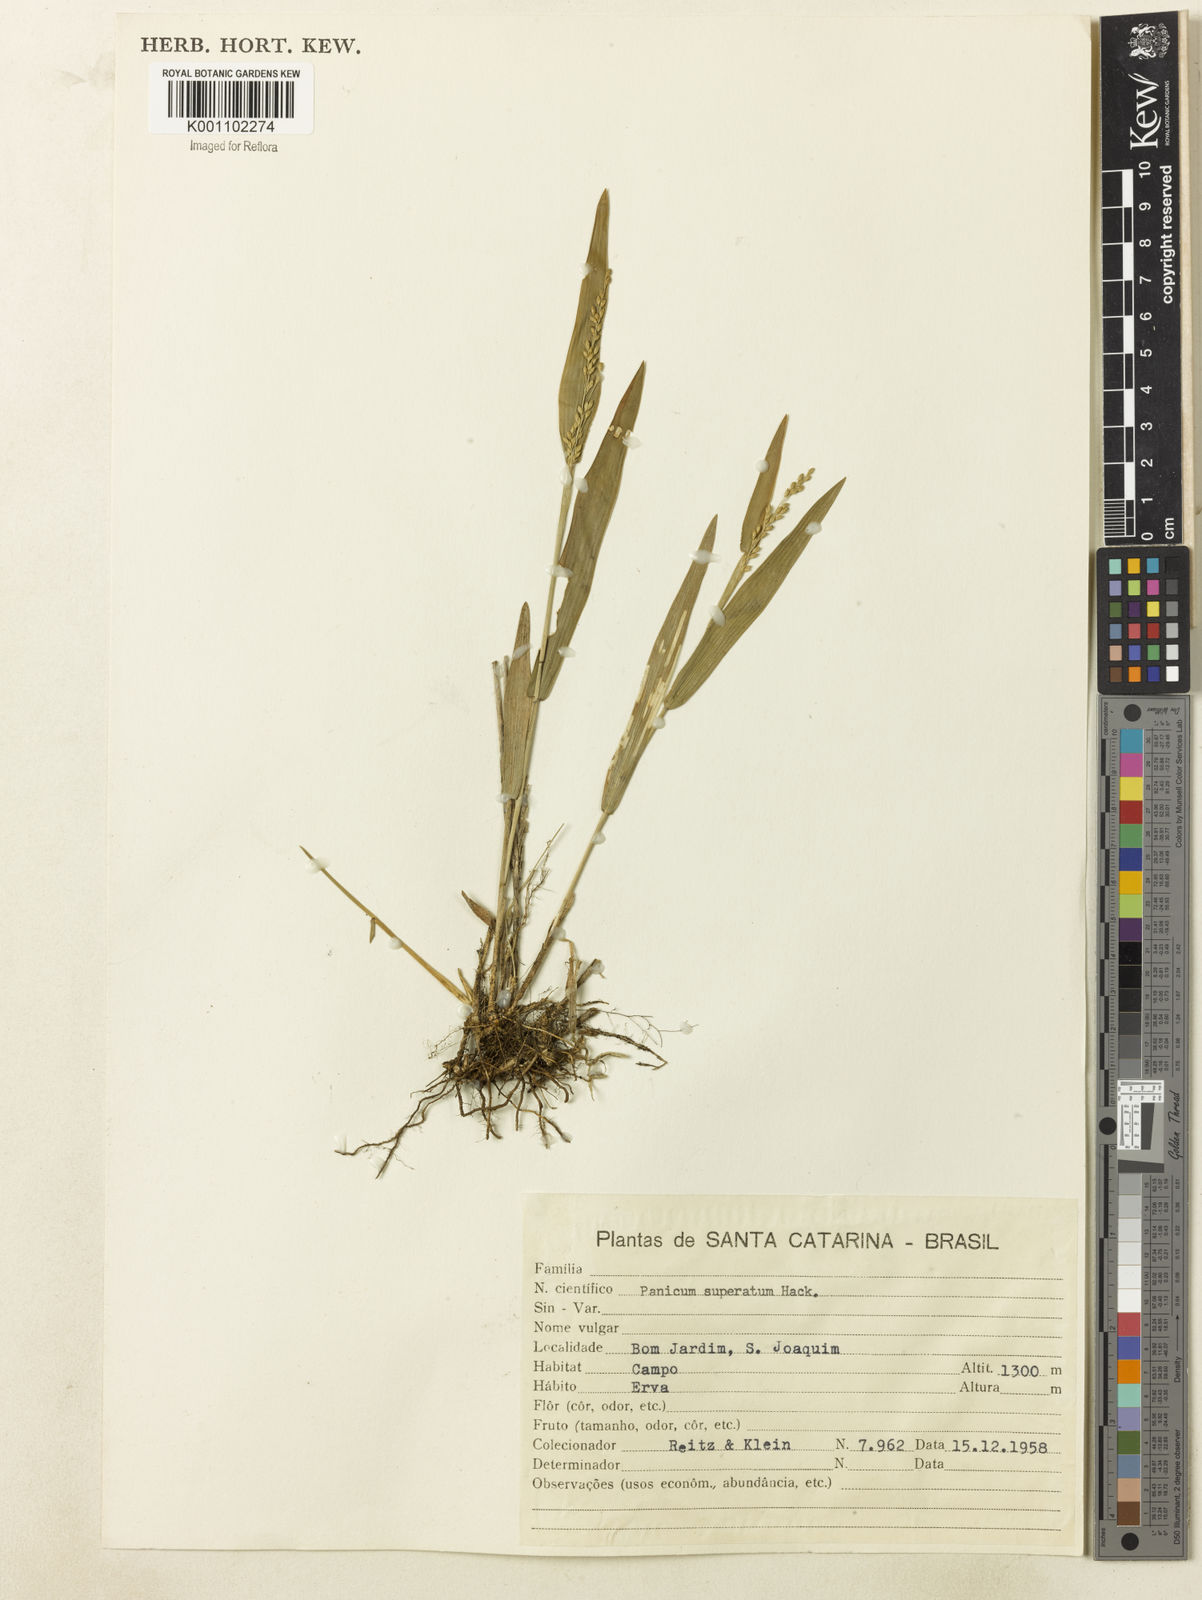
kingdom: Plantae
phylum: Tracheophyta
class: Liliopsida
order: Poales
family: Poaceae
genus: Dichanthelium
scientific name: Dichanthelium superatum
